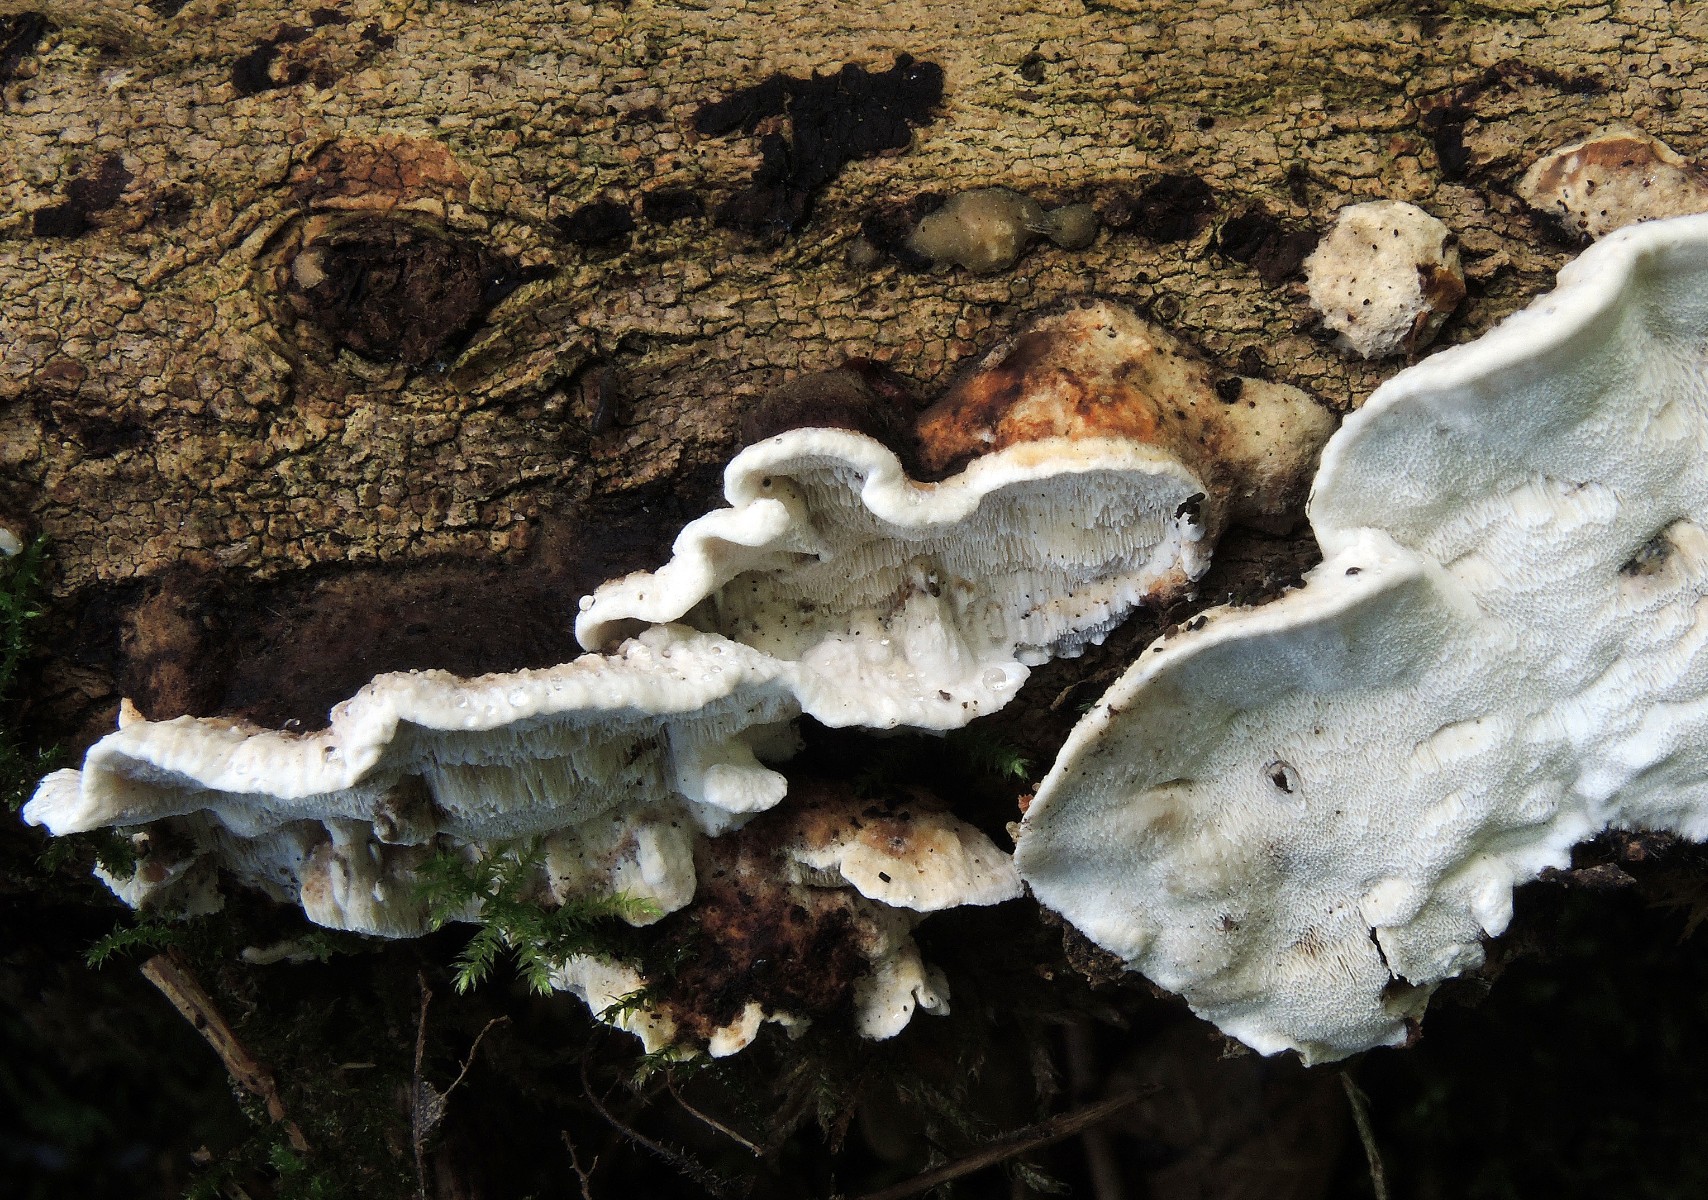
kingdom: Fungi
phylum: Basidiomycota
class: Agaricomycetes
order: Polyporales
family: Incrustoporiaceae
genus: Skeletocutis
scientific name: Skeletocutis nemoralis
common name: stor krystalporesvamp
